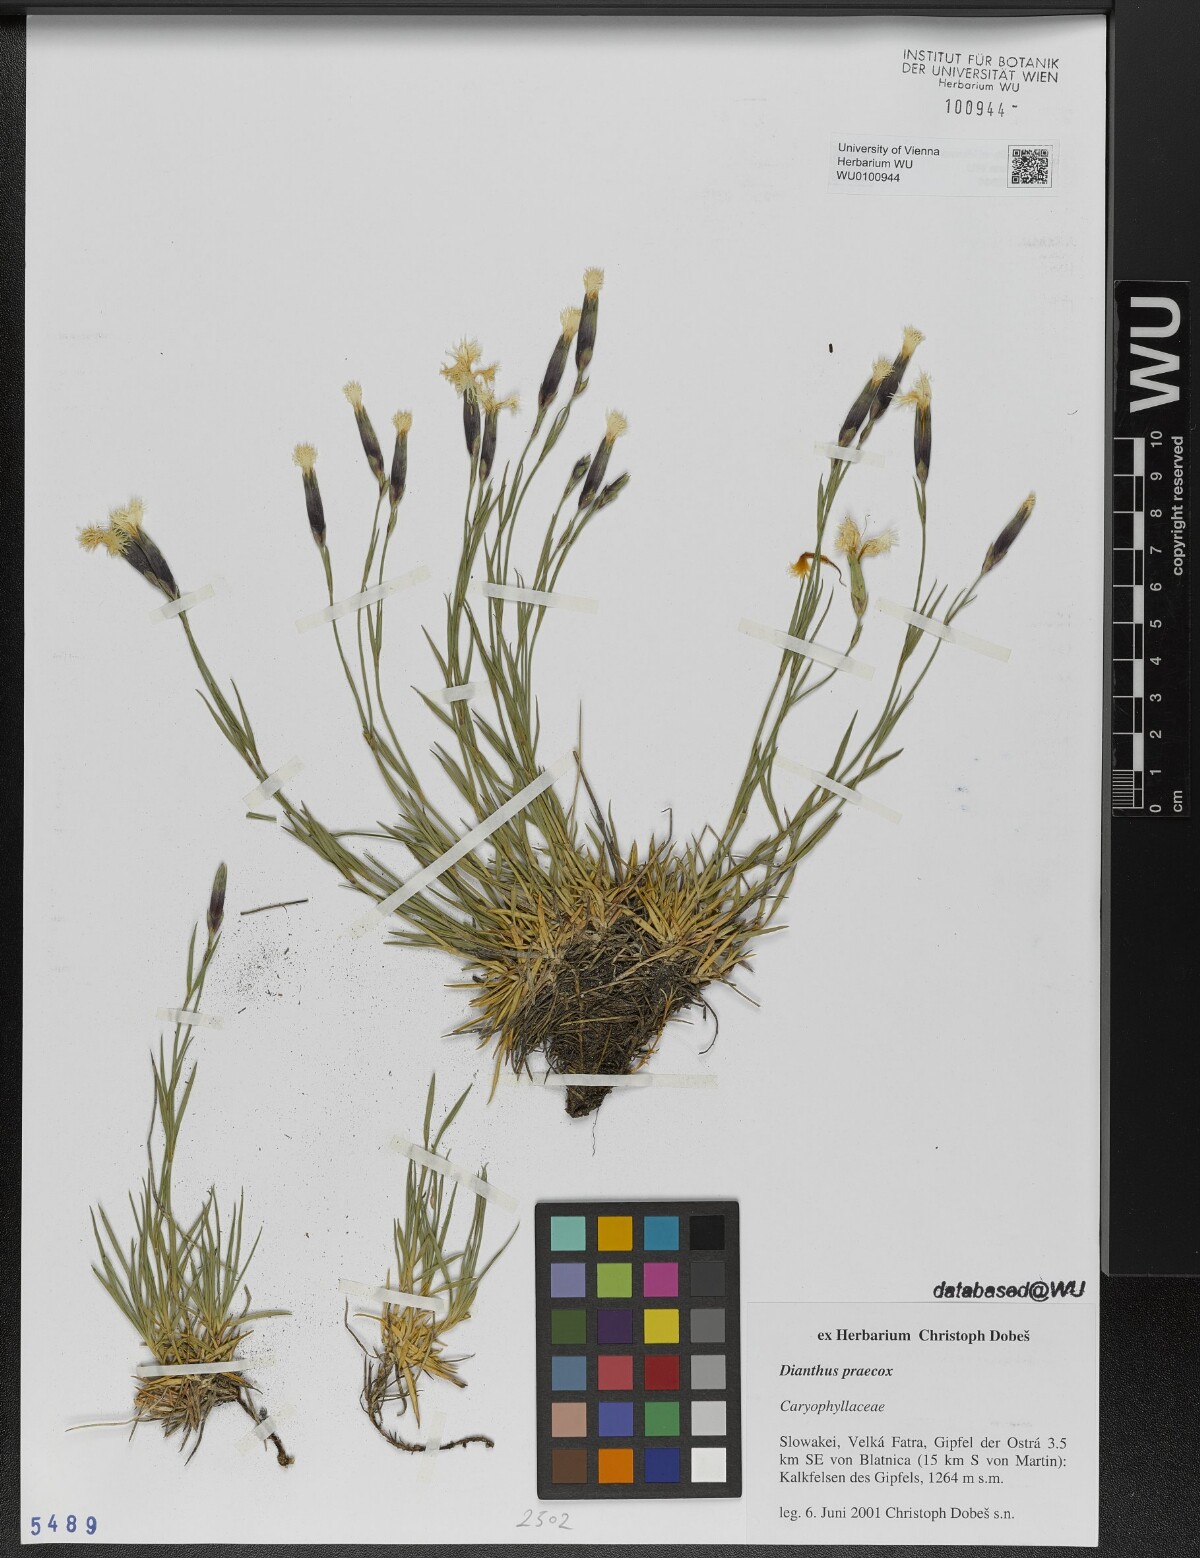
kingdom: Plantae
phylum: Tracheophyta
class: Magnoliopsida
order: Caryophyllales
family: Caryophyllaceae
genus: Dianthus
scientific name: Dianthus praecox
